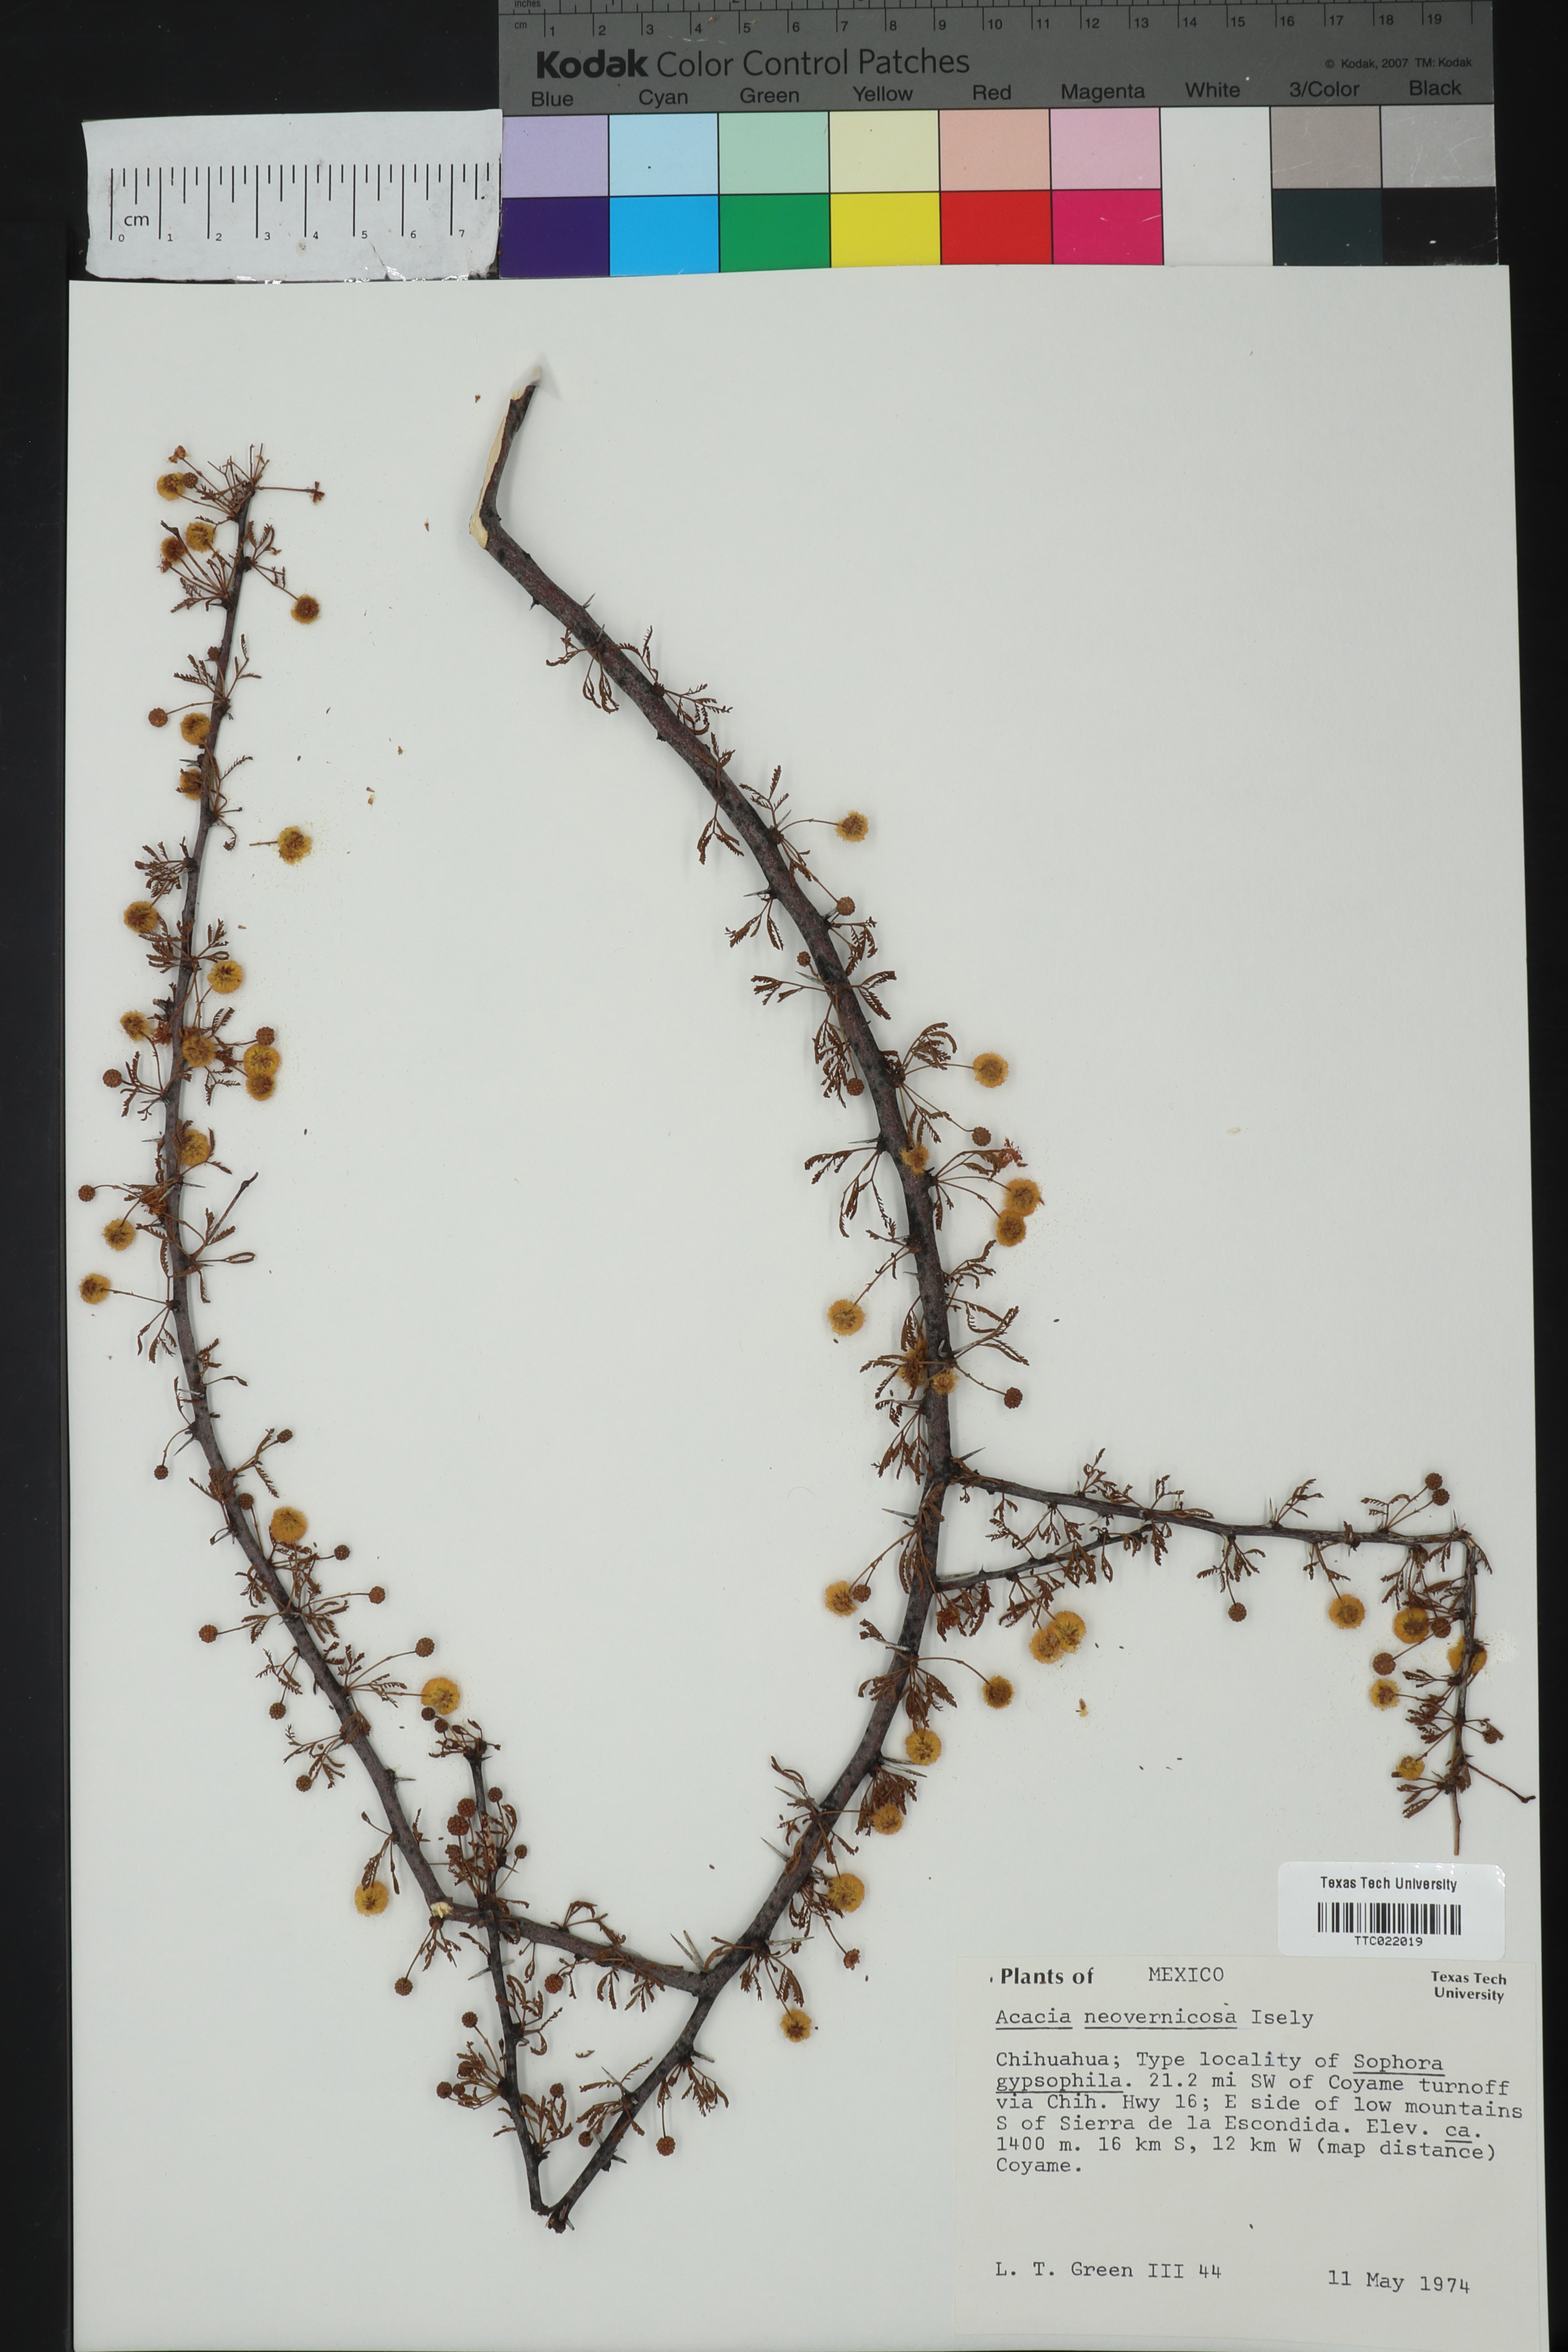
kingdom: Plantae
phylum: Tracheophyta
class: Magnoliopsida
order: Fabales
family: Fabaceae
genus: Vachellia
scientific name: Vachellia vernicosa
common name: Viscid acacia
